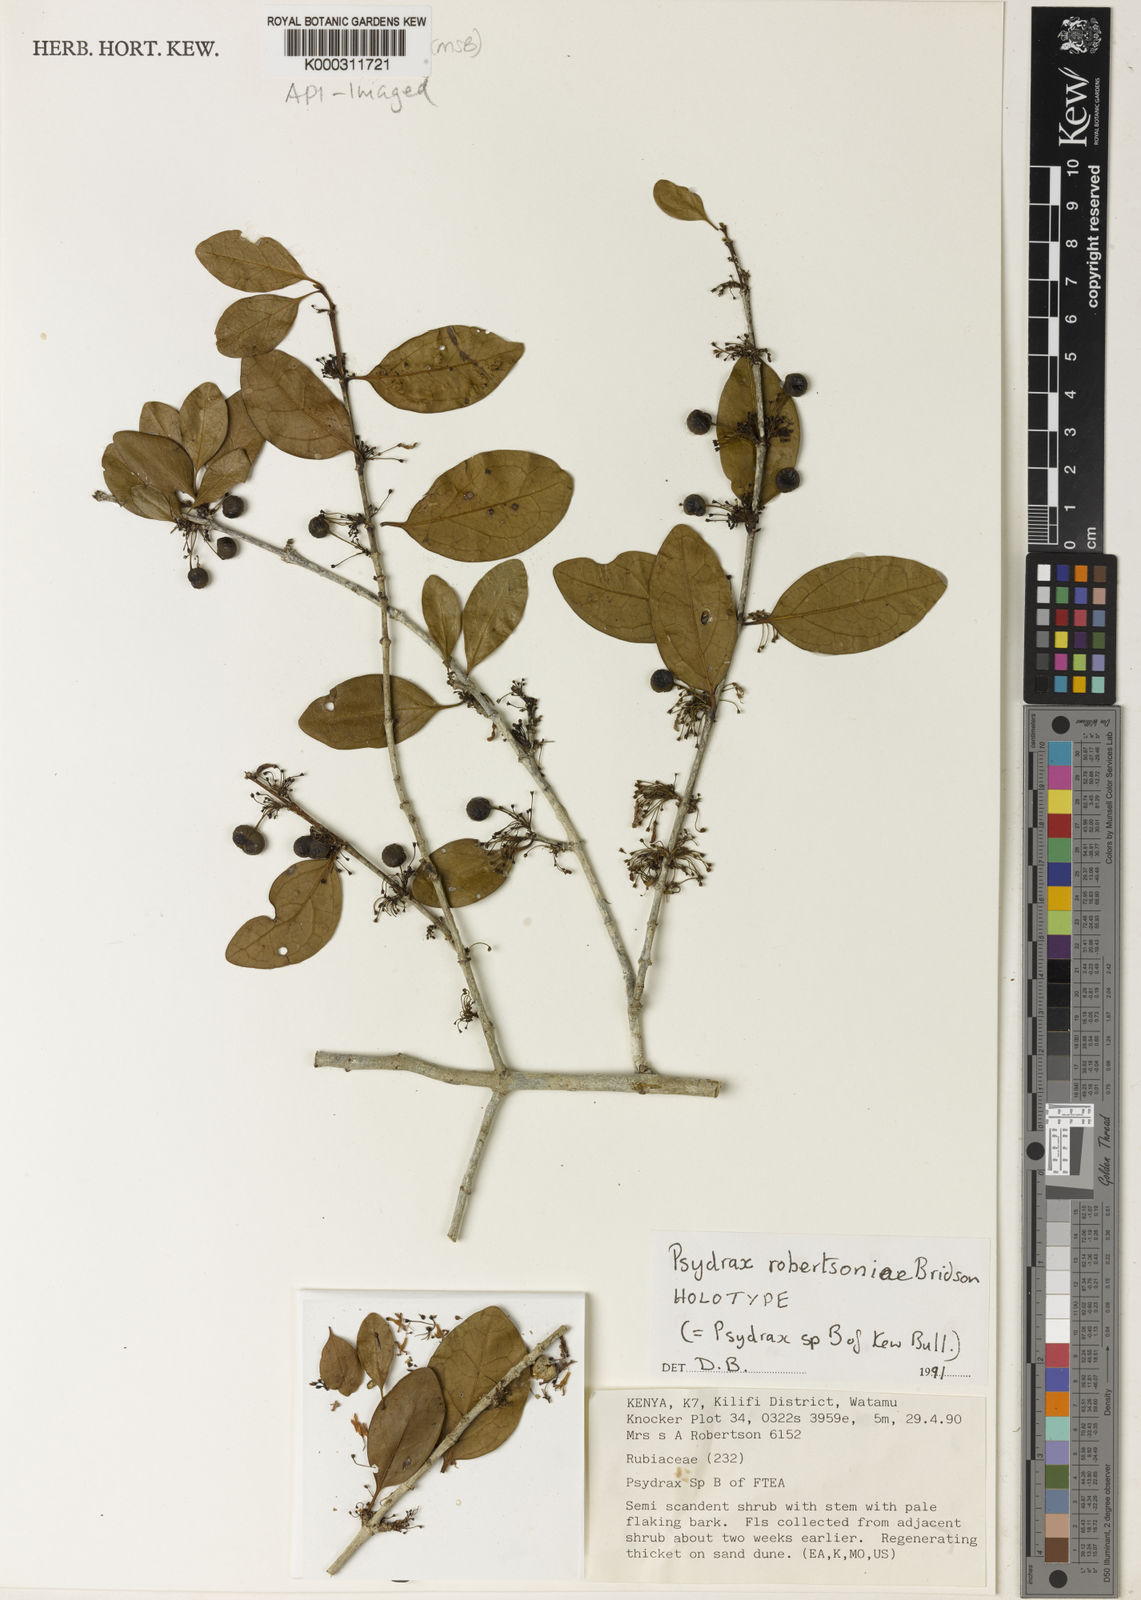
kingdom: Plantae
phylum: Tracheophyta
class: Magnoliopsida
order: Gentianales
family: Rubiaceae
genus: Psydrax
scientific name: Psydrax robertsoniae
